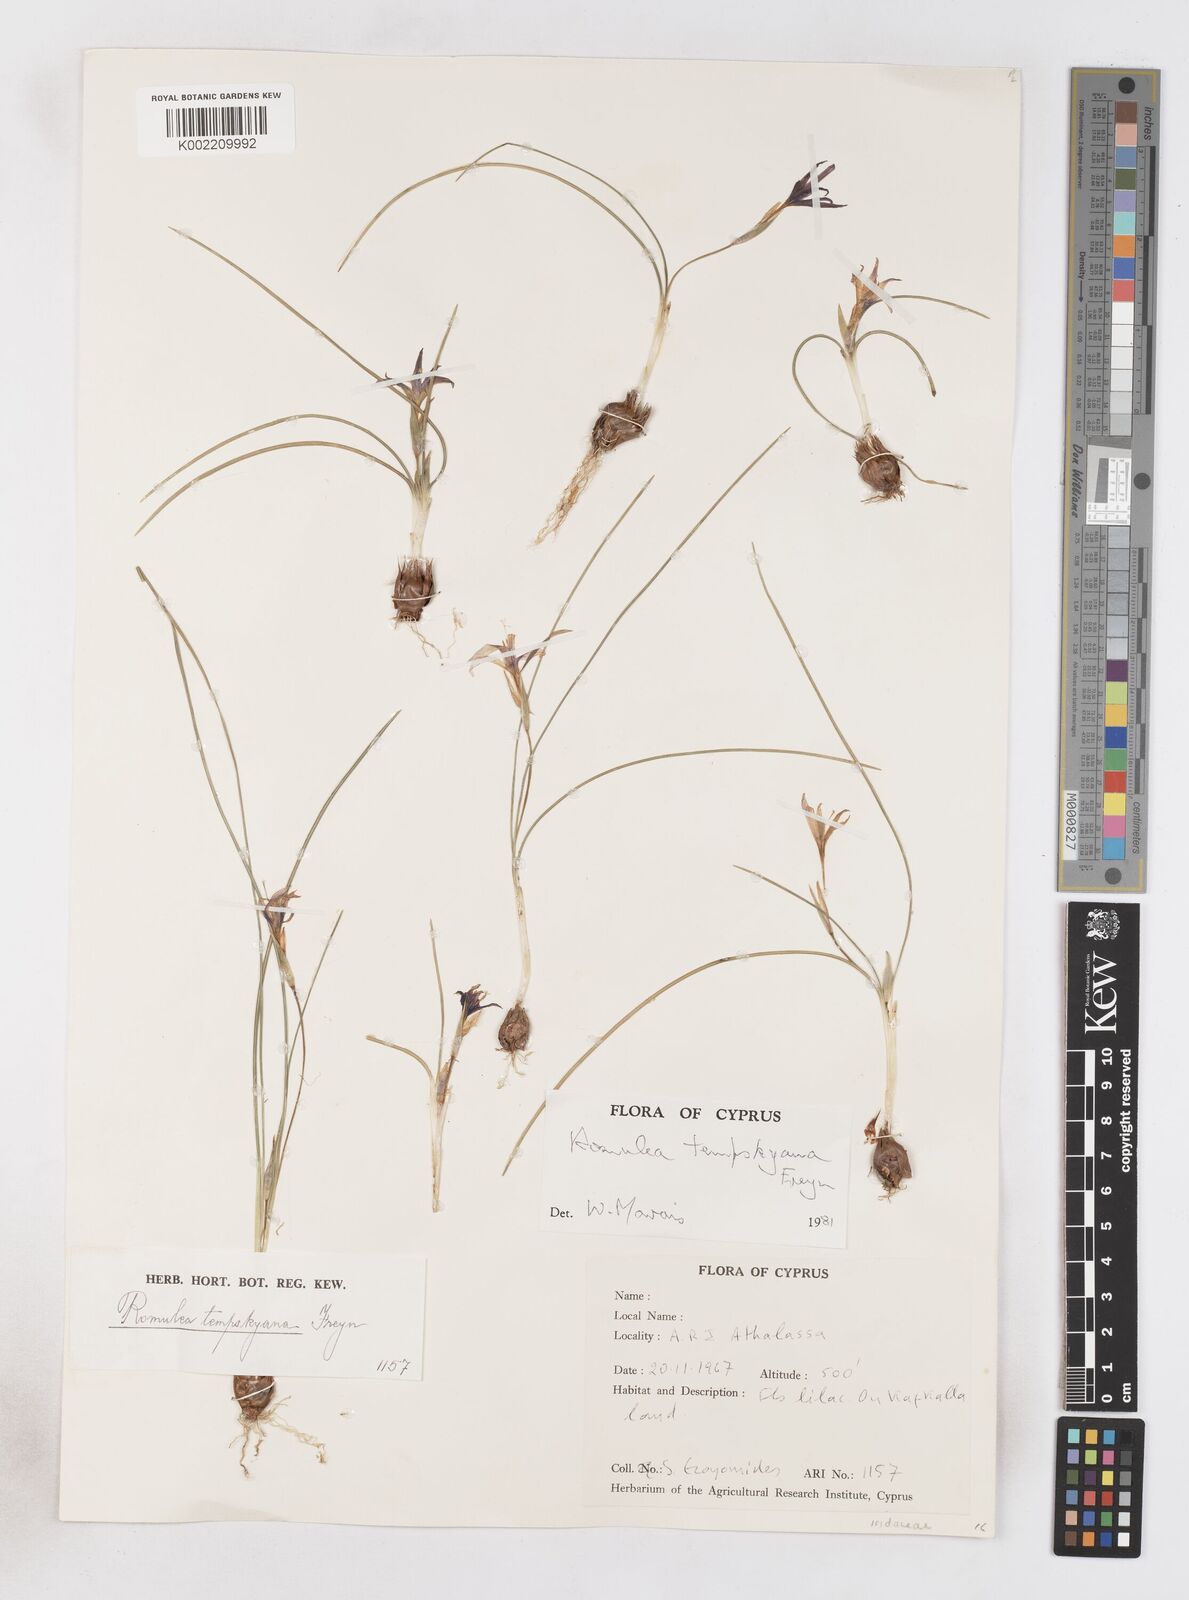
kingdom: Plantae
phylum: Tracheophyta
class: Liliopsida
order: Asparagales
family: Iridaceae
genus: Romulea
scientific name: Romulea tempskyana
